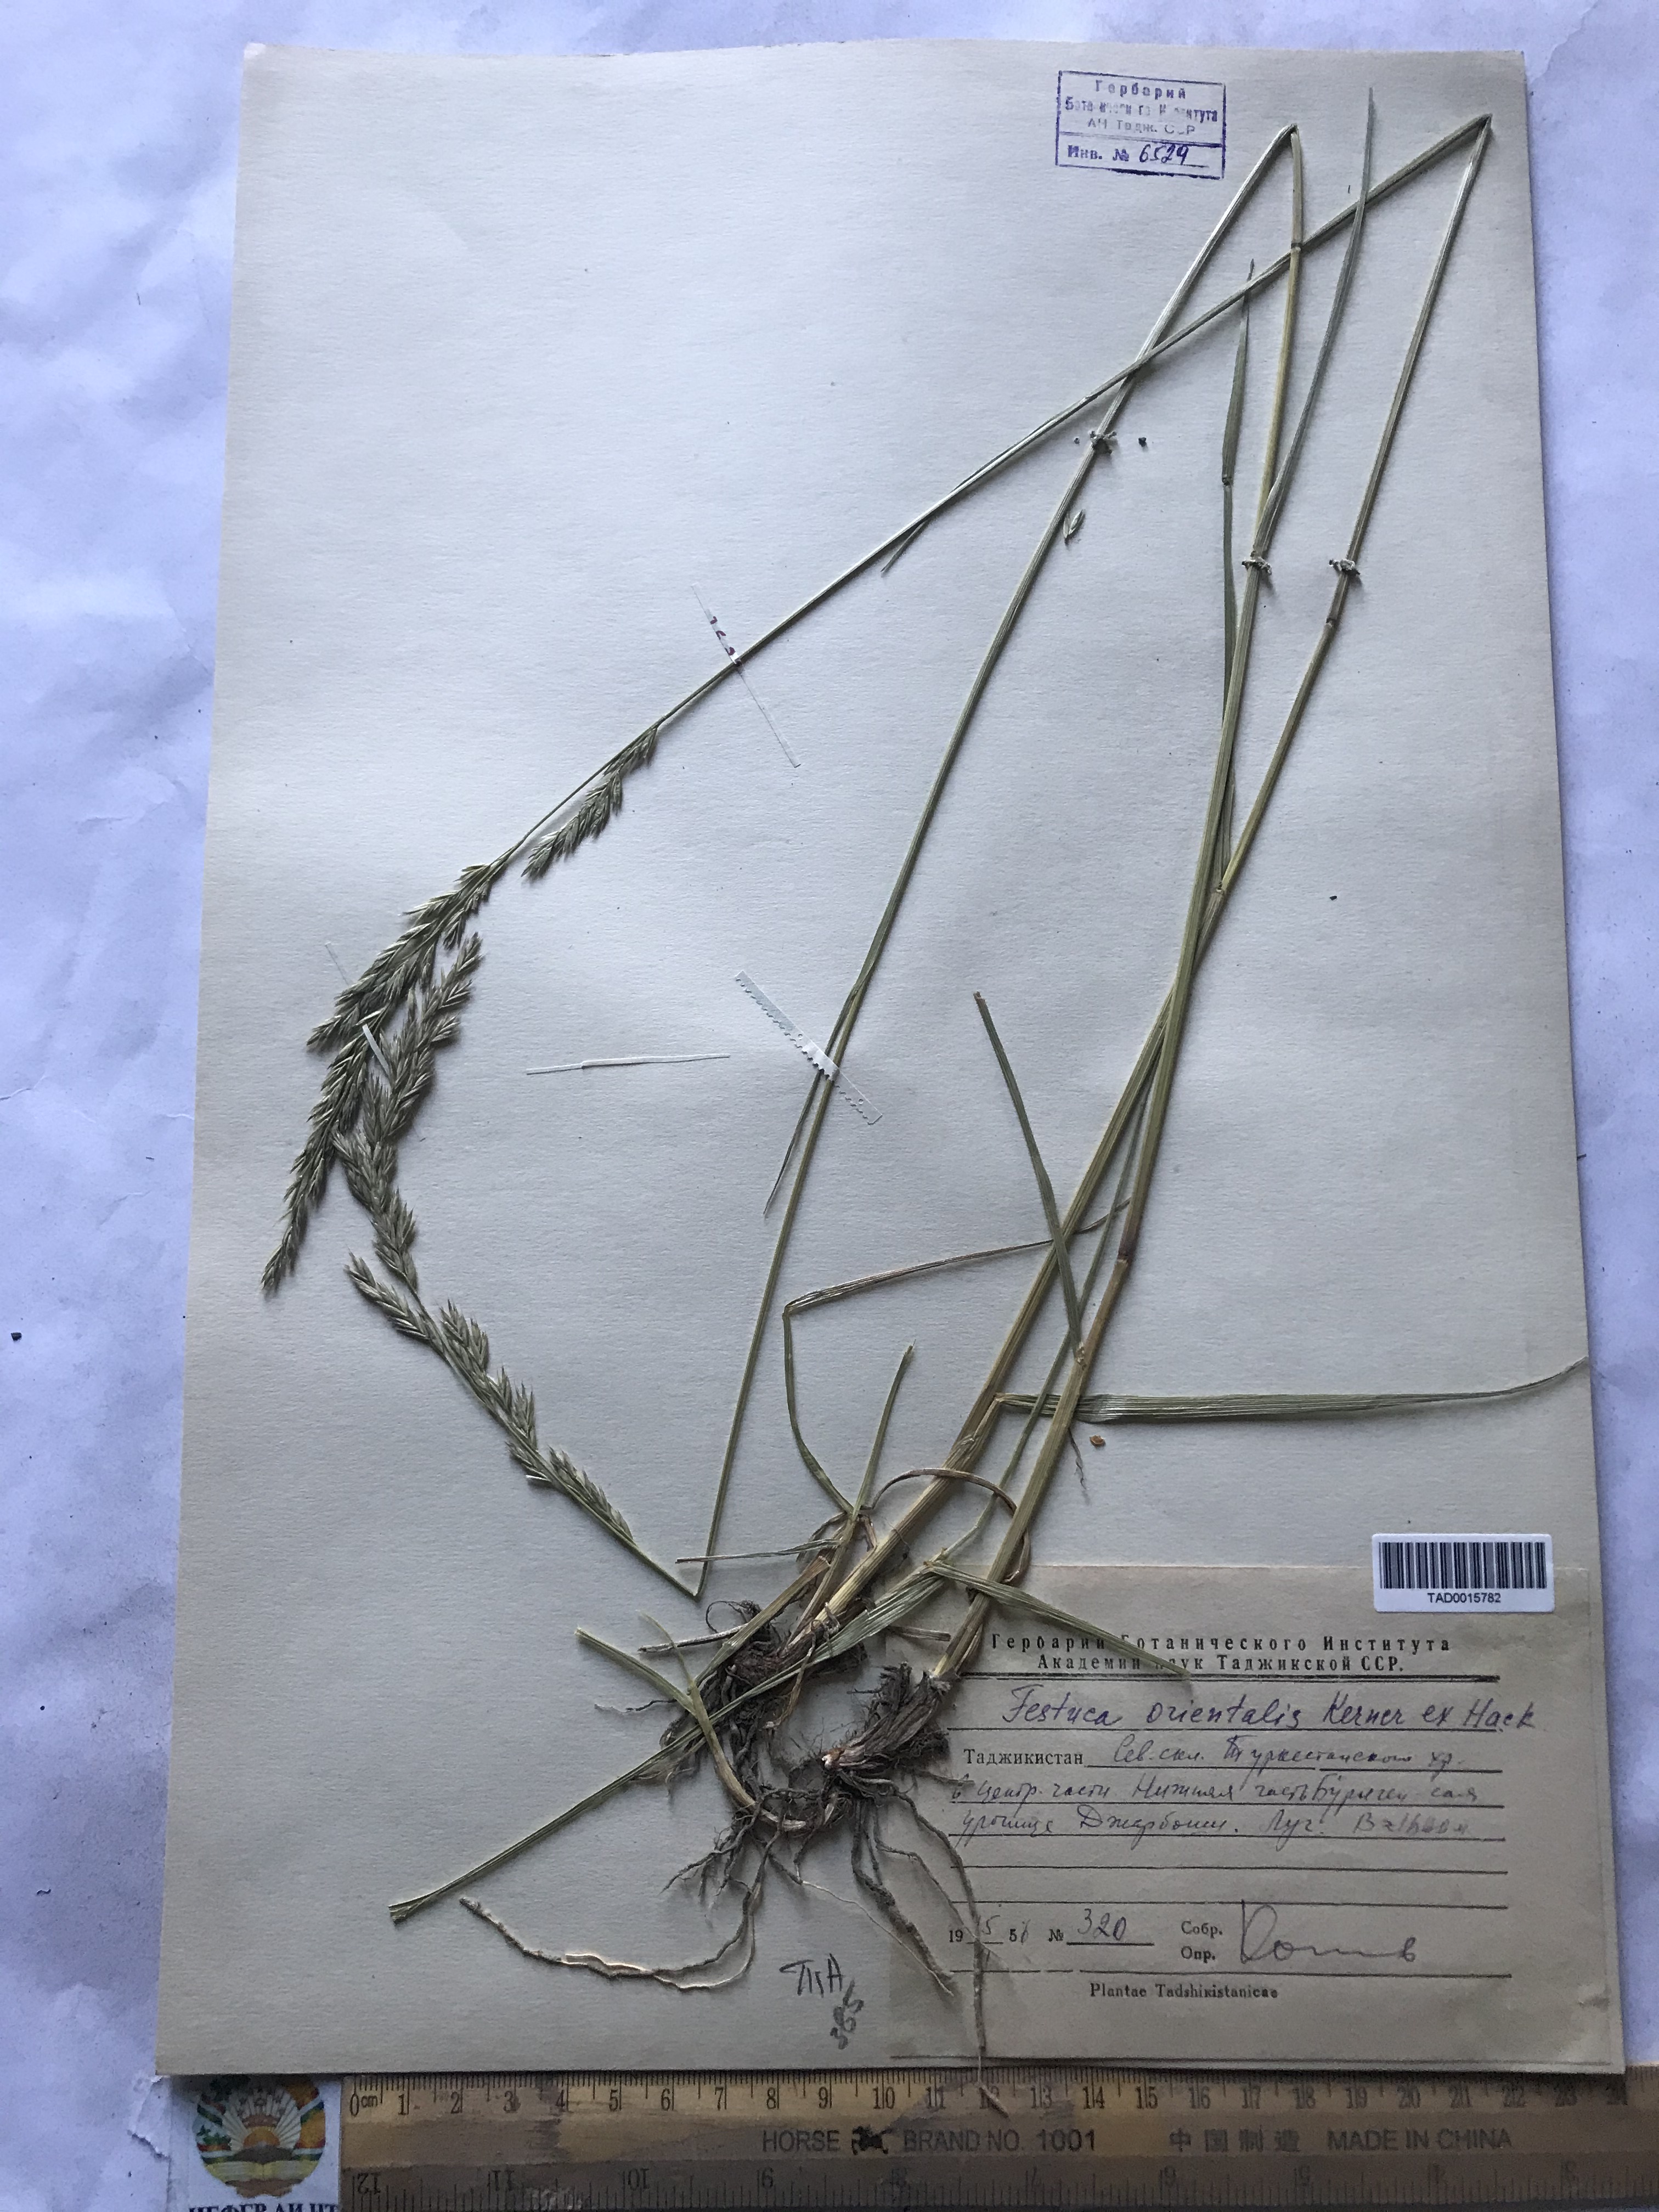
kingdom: Plantae
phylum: Tracheophyta
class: Liliopsida
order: Poales
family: Poaceae
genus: Lolium
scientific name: Lolium arundinaceum
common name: Reed fescue
